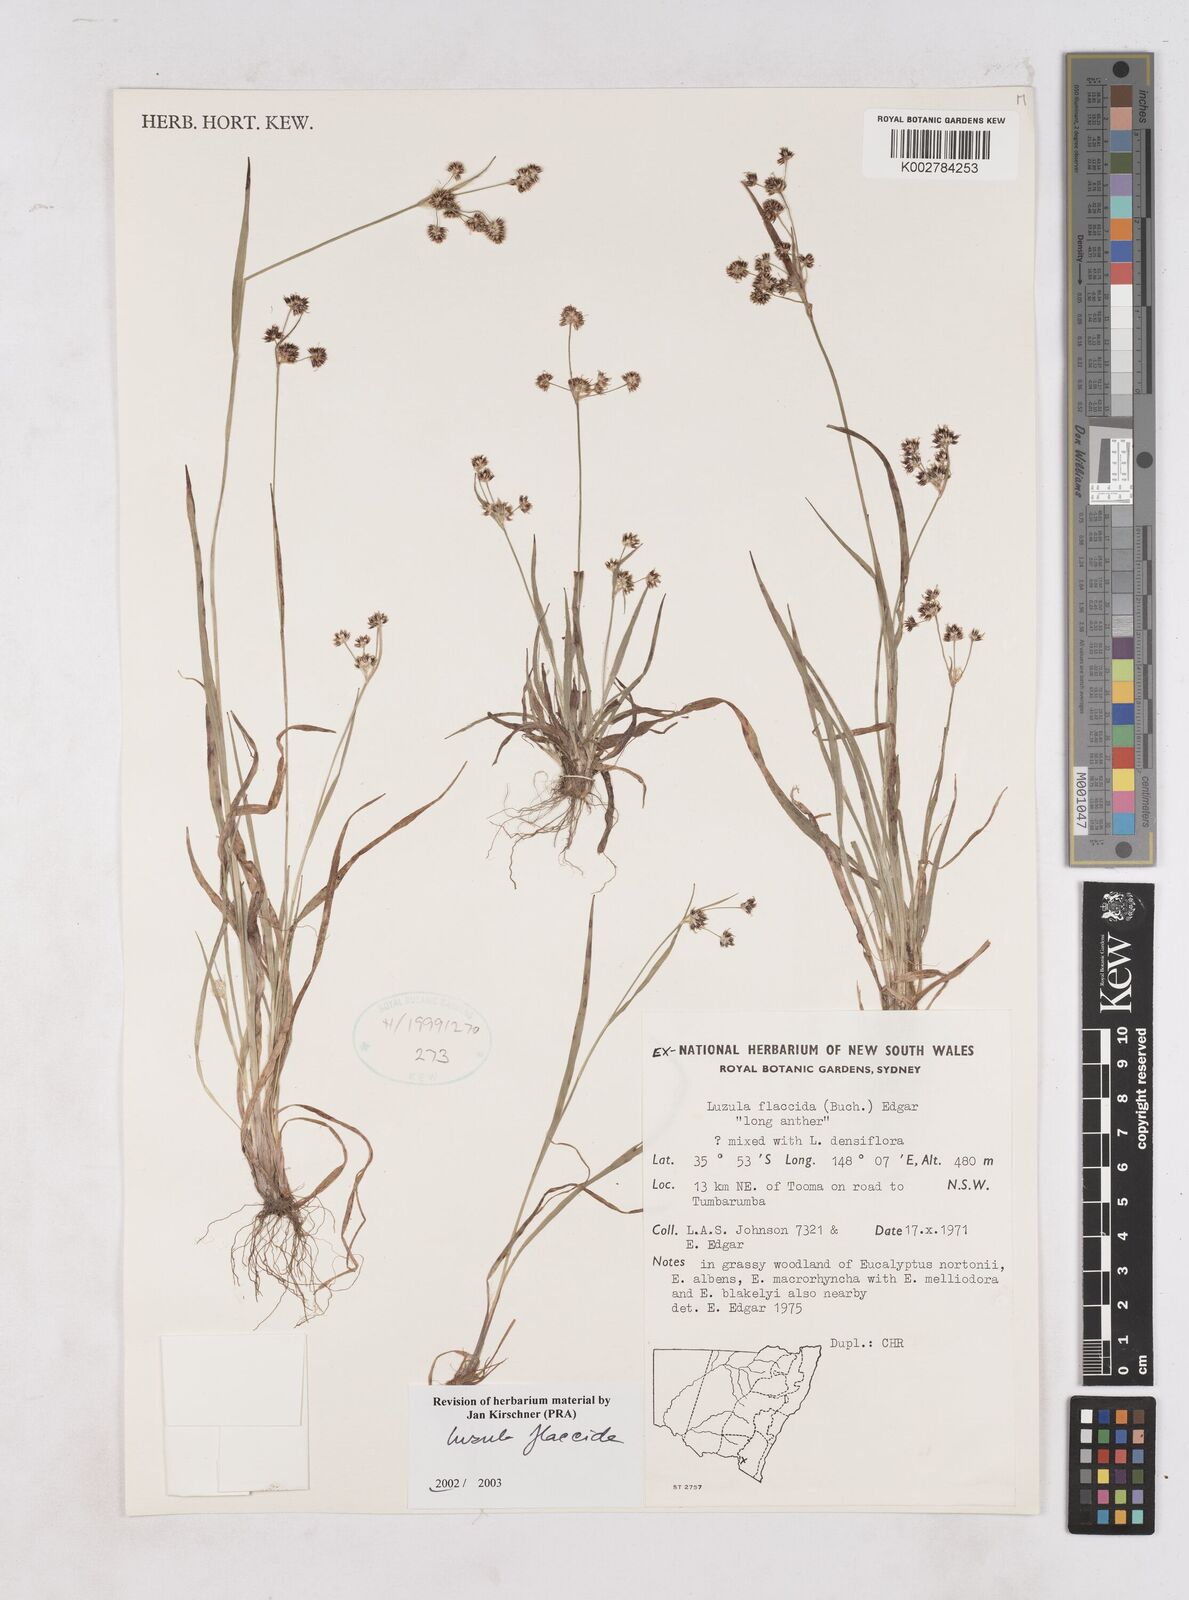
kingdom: Plantae
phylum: Tracheophyta
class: Liliopsida
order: Poales
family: Juncaceae
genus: Luzula
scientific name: Luzula flaccida
